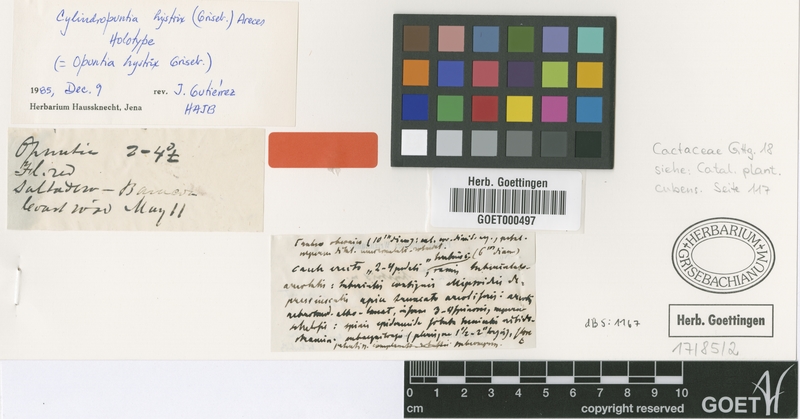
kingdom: Plantae
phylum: Tracheophyta
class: Magnoliopsida
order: Caryophyllales
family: Cactaceae
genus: Cylindropuntia
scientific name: Cylindropuntia hystrix
